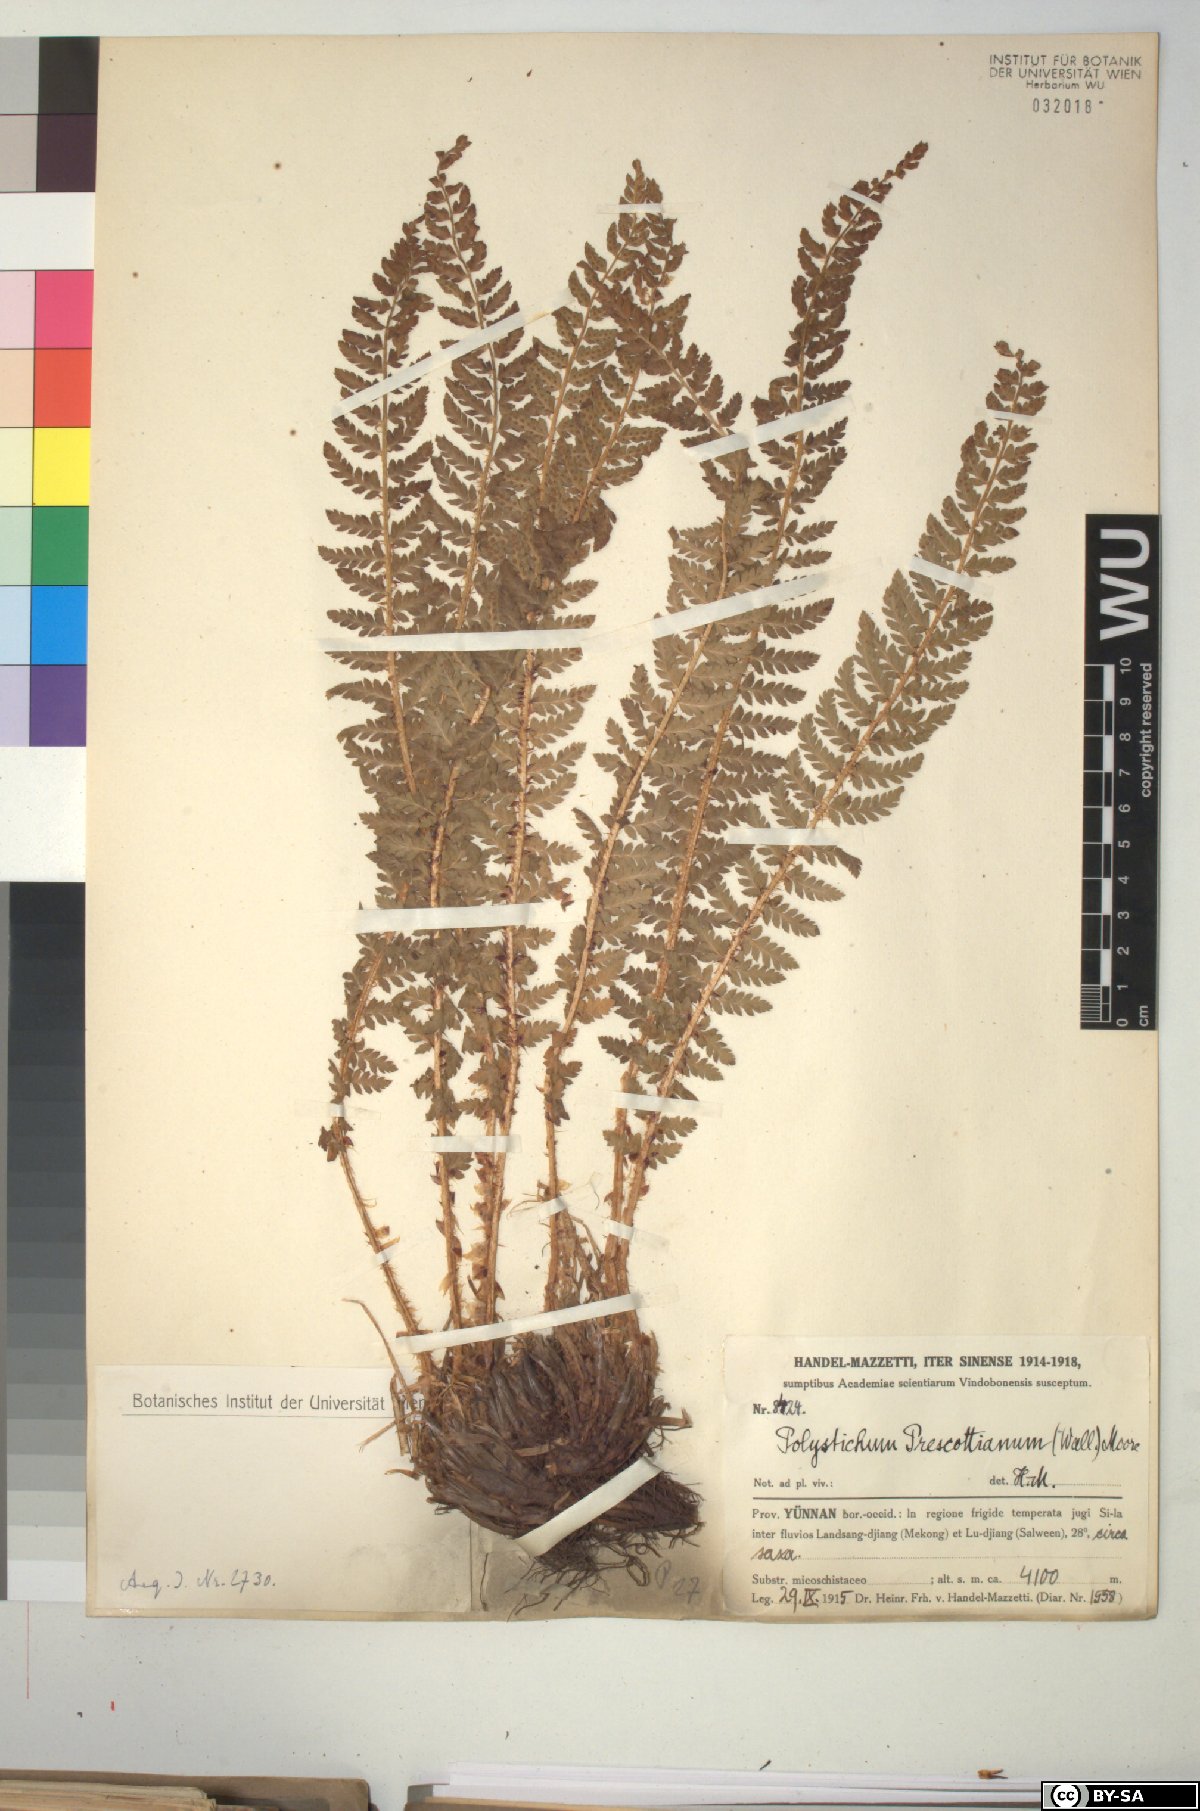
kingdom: Plantae
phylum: Tracheophyta
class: Polypodiopsida
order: Polypodiales
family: Dryopteridaceae
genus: Polystichum
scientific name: Polystichum prescottianum
